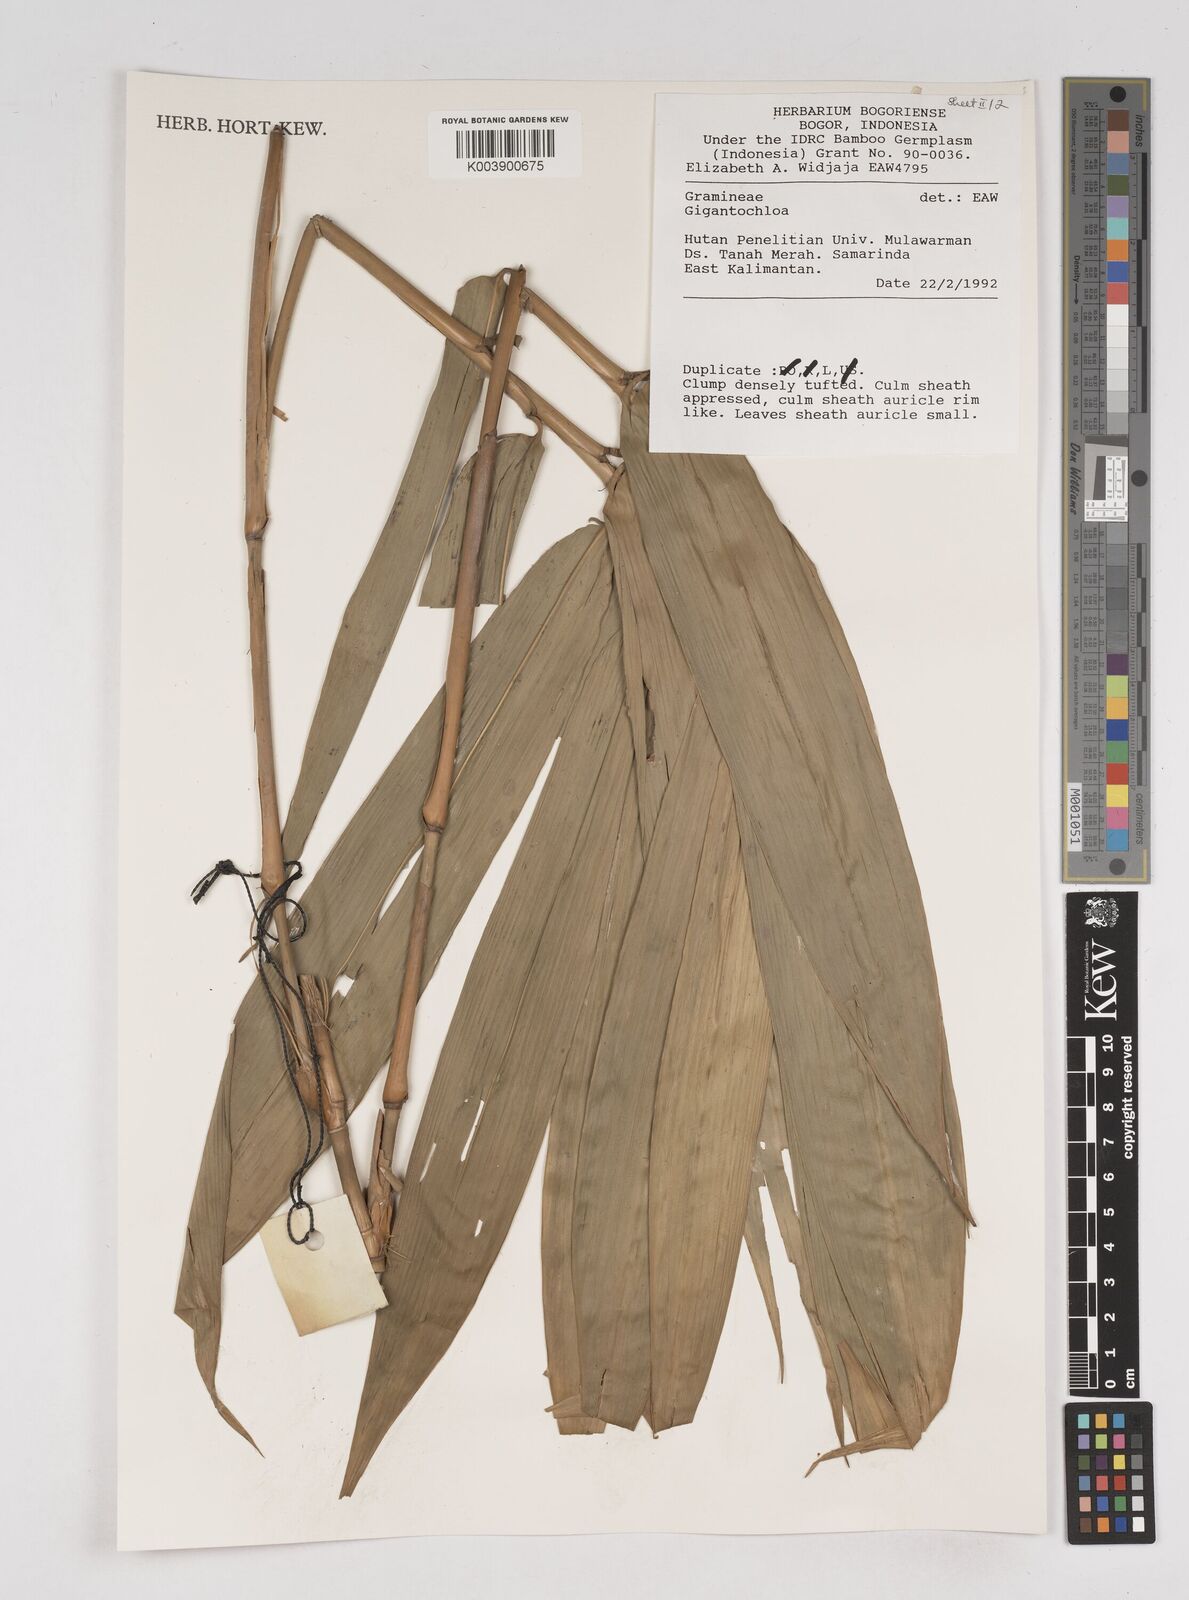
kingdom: Plantae
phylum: Tracheophyta
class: Liliopsida
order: Poales
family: Poaceae
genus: Gigantochloa
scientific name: Gigantochloa
